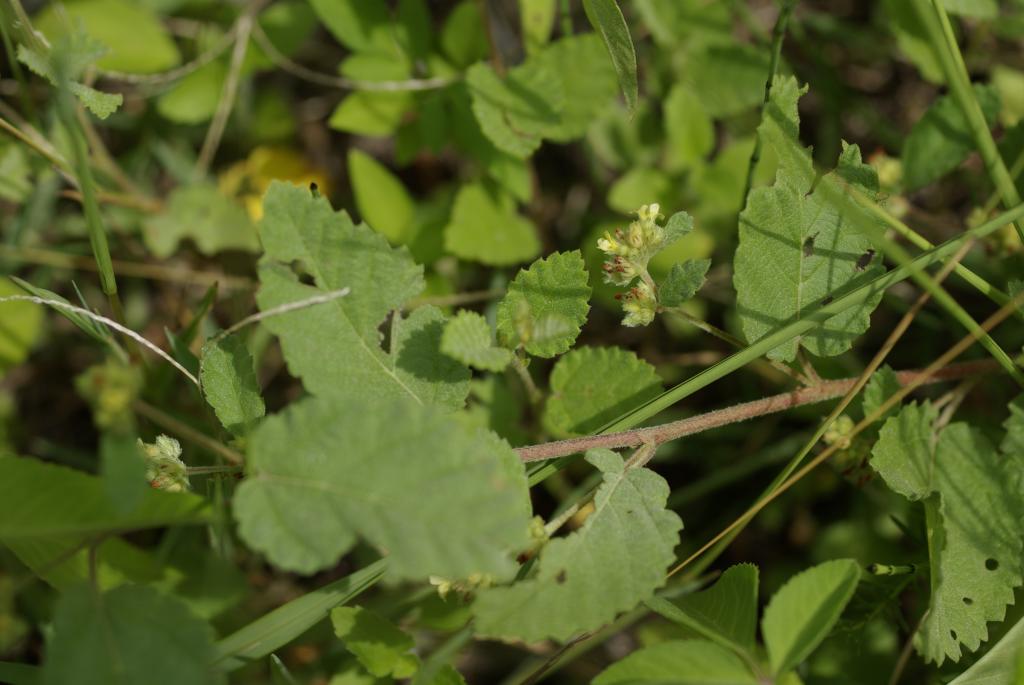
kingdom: Plantae
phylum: Tracheophyta
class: Magnoliopsida
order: Malvales
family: Malvaceae
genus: Waltheria
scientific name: Waltheria indica
